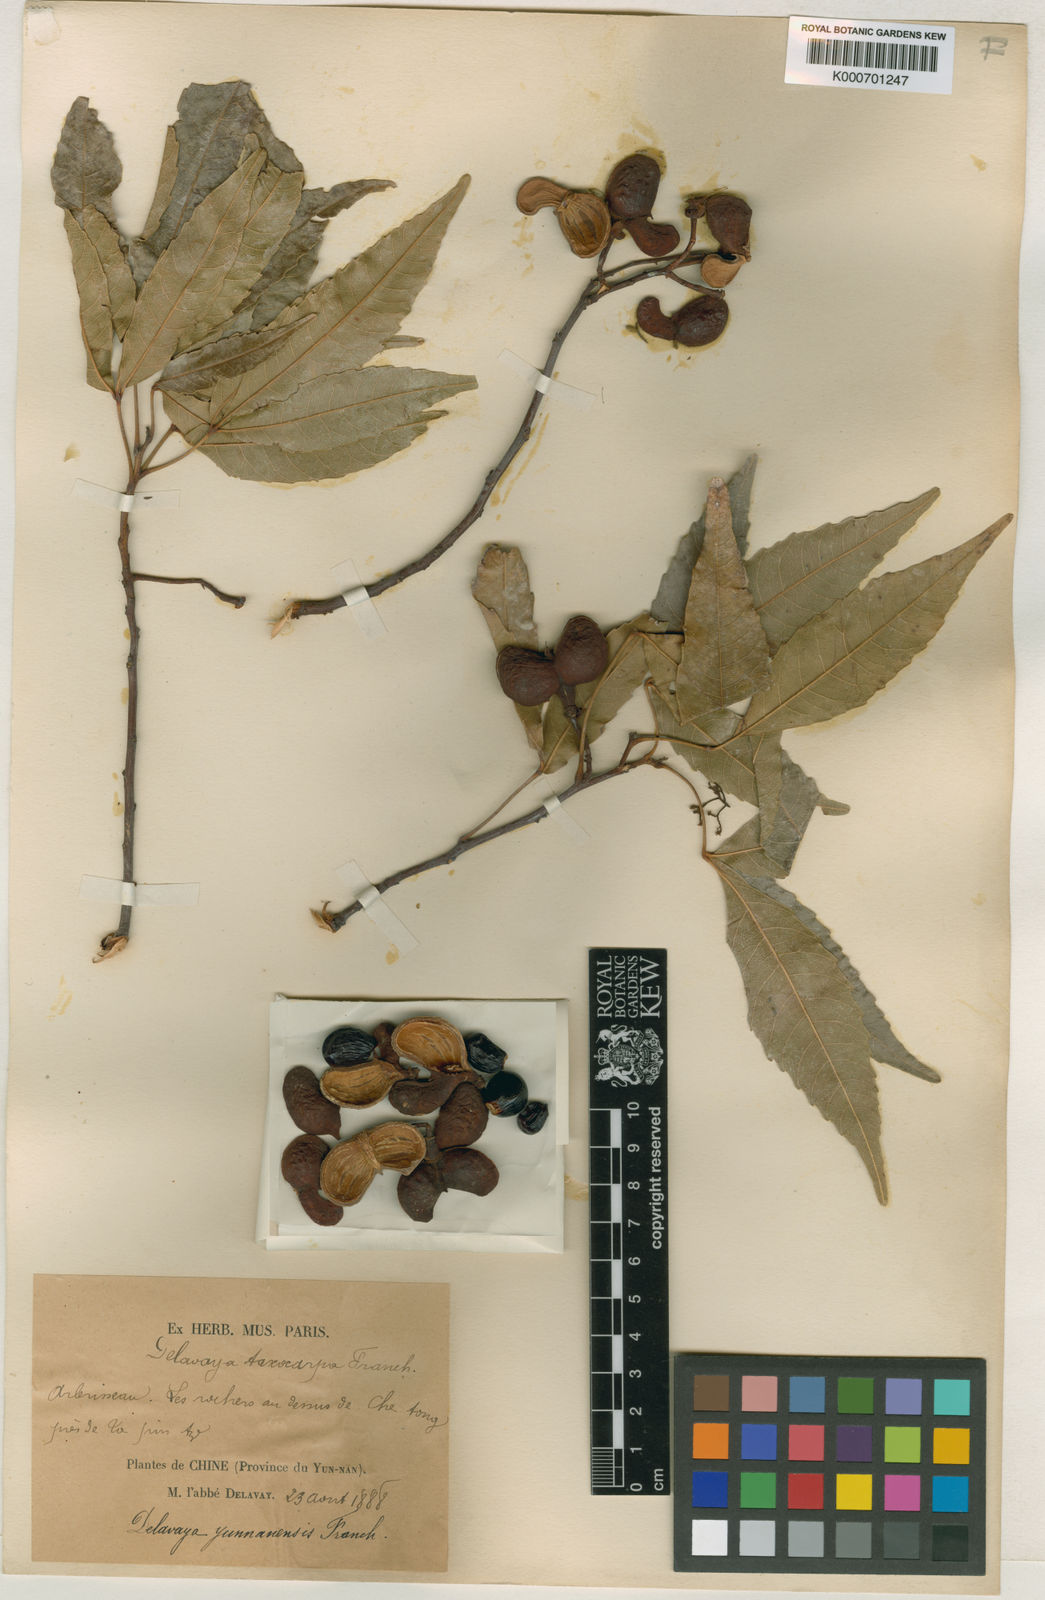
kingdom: Plantae
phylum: Tracheophyta
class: Magnoliopsida
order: Sapindales
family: Sapindaceae
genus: Delavaya
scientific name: Delavaya
